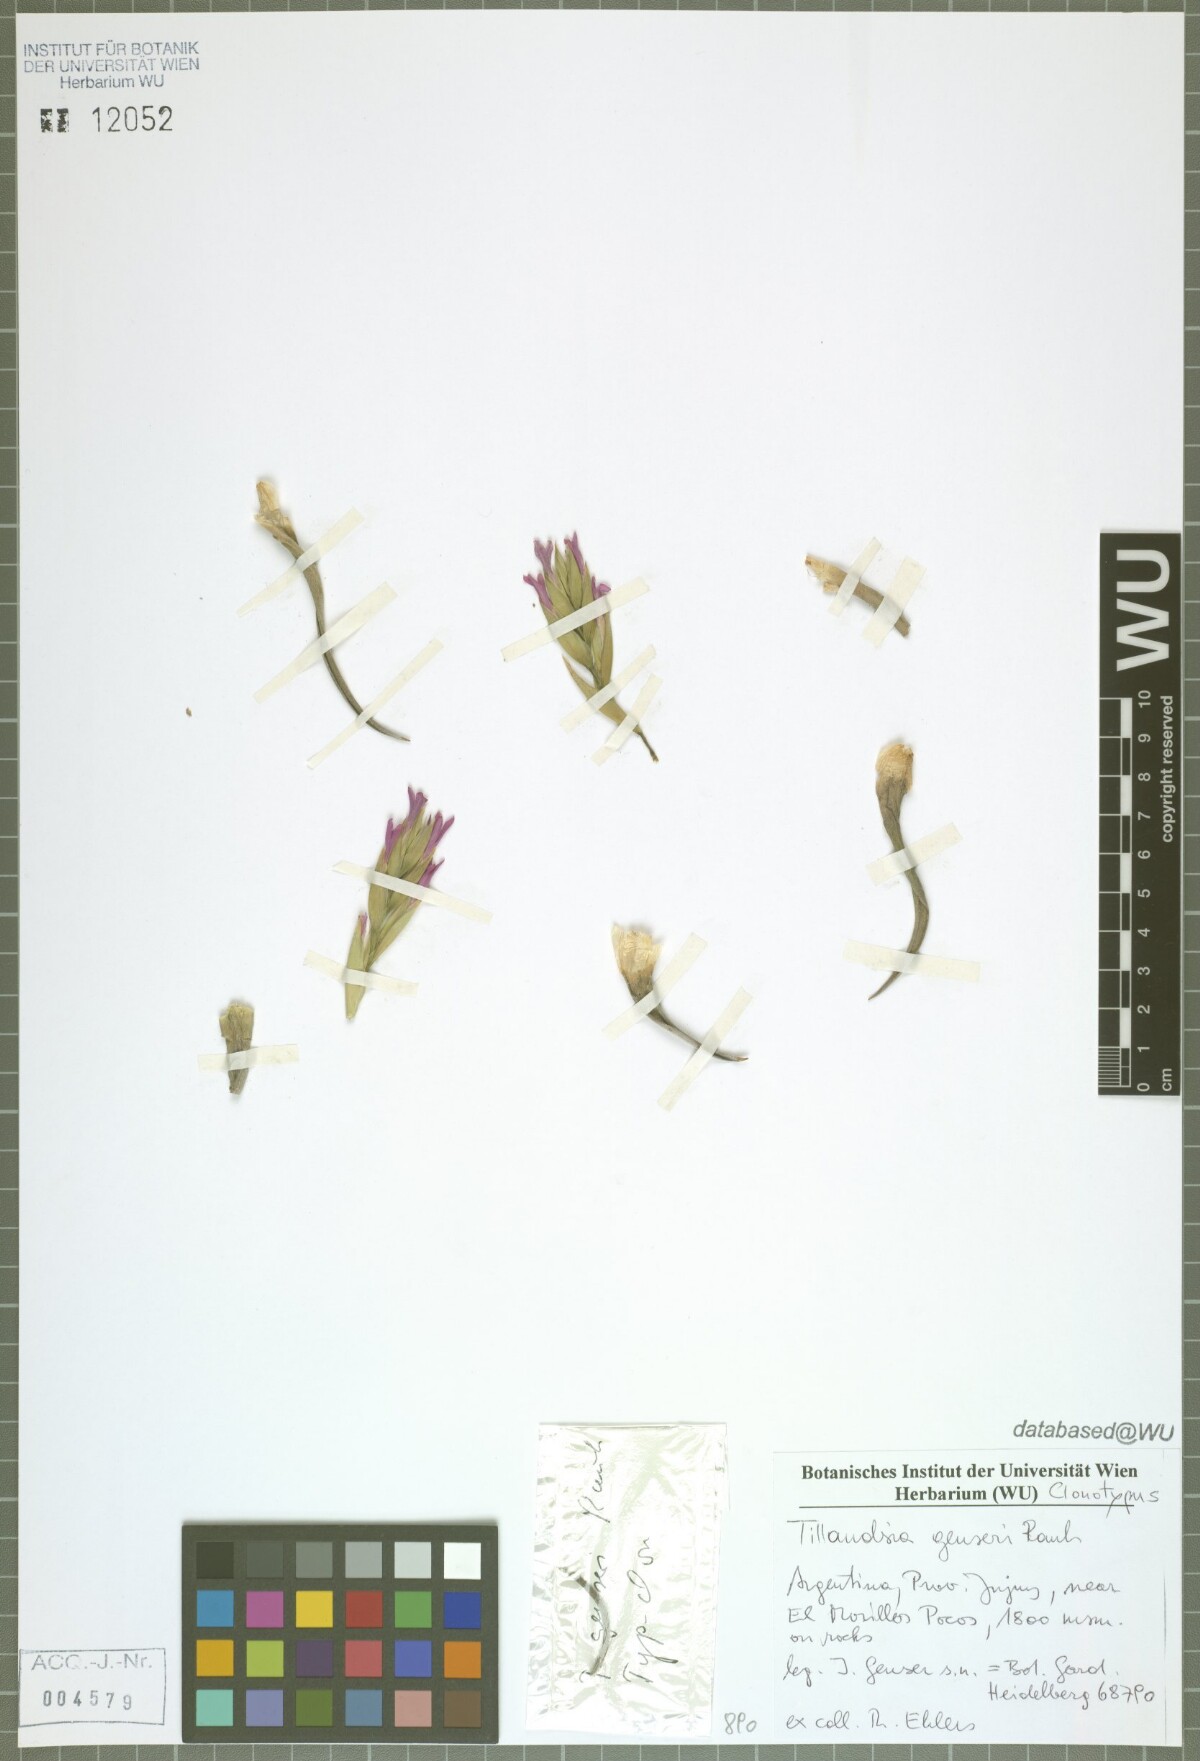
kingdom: Plantae
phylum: Tracheophyta
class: Liliopsida
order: Poales
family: Bromeliaceae
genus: Tillandsia
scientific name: Tillandsia genseri
